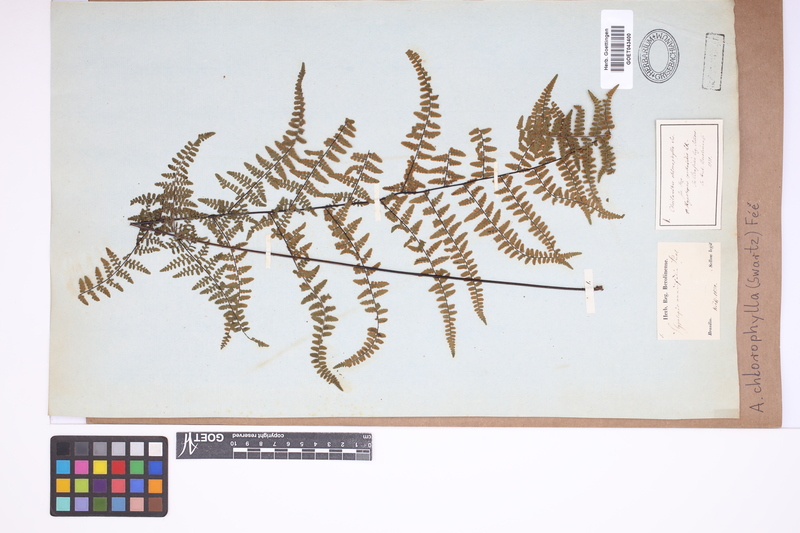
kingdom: Plantae
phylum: Tracheophyta
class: Polypodiopsida
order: Polypodiales
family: Pteridaceae
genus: Adiantopsis
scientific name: Adiantopsis chlorophylla
